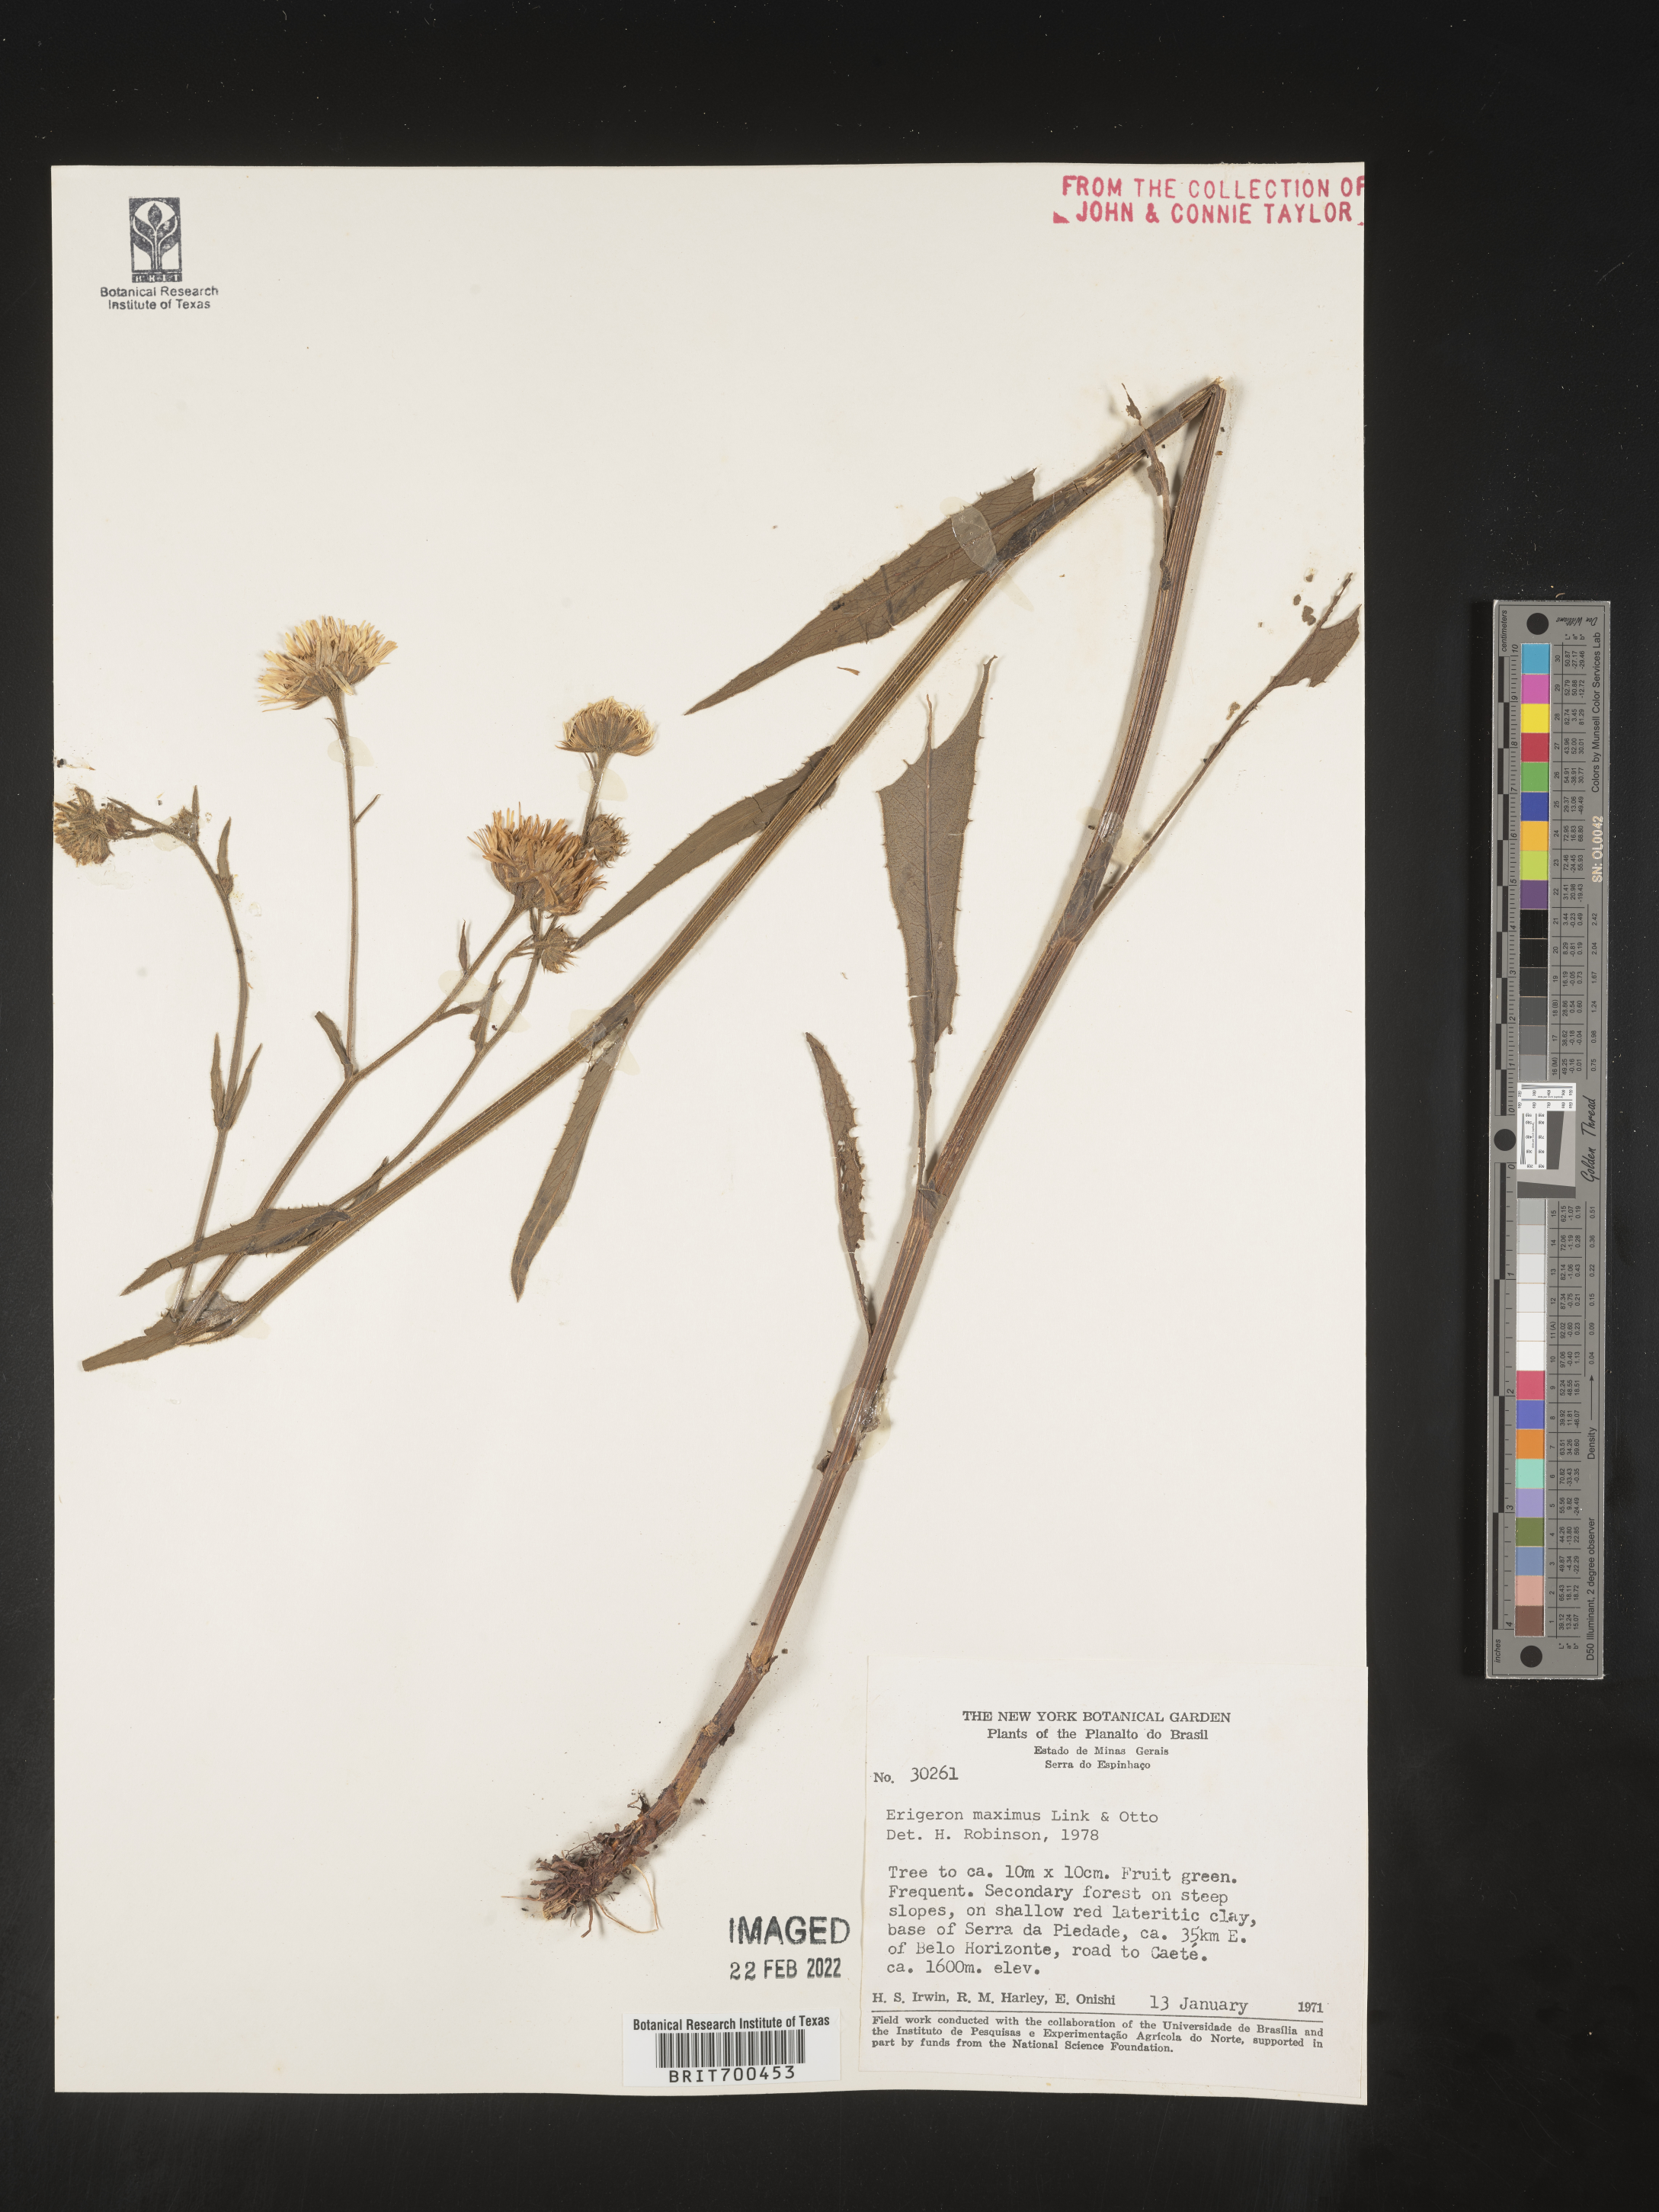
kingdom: Plantae
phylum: Tracheophyta
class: Magnoliopsida
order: Asterales
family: Asteraceae
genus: Erigeron
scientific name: Erigeron
